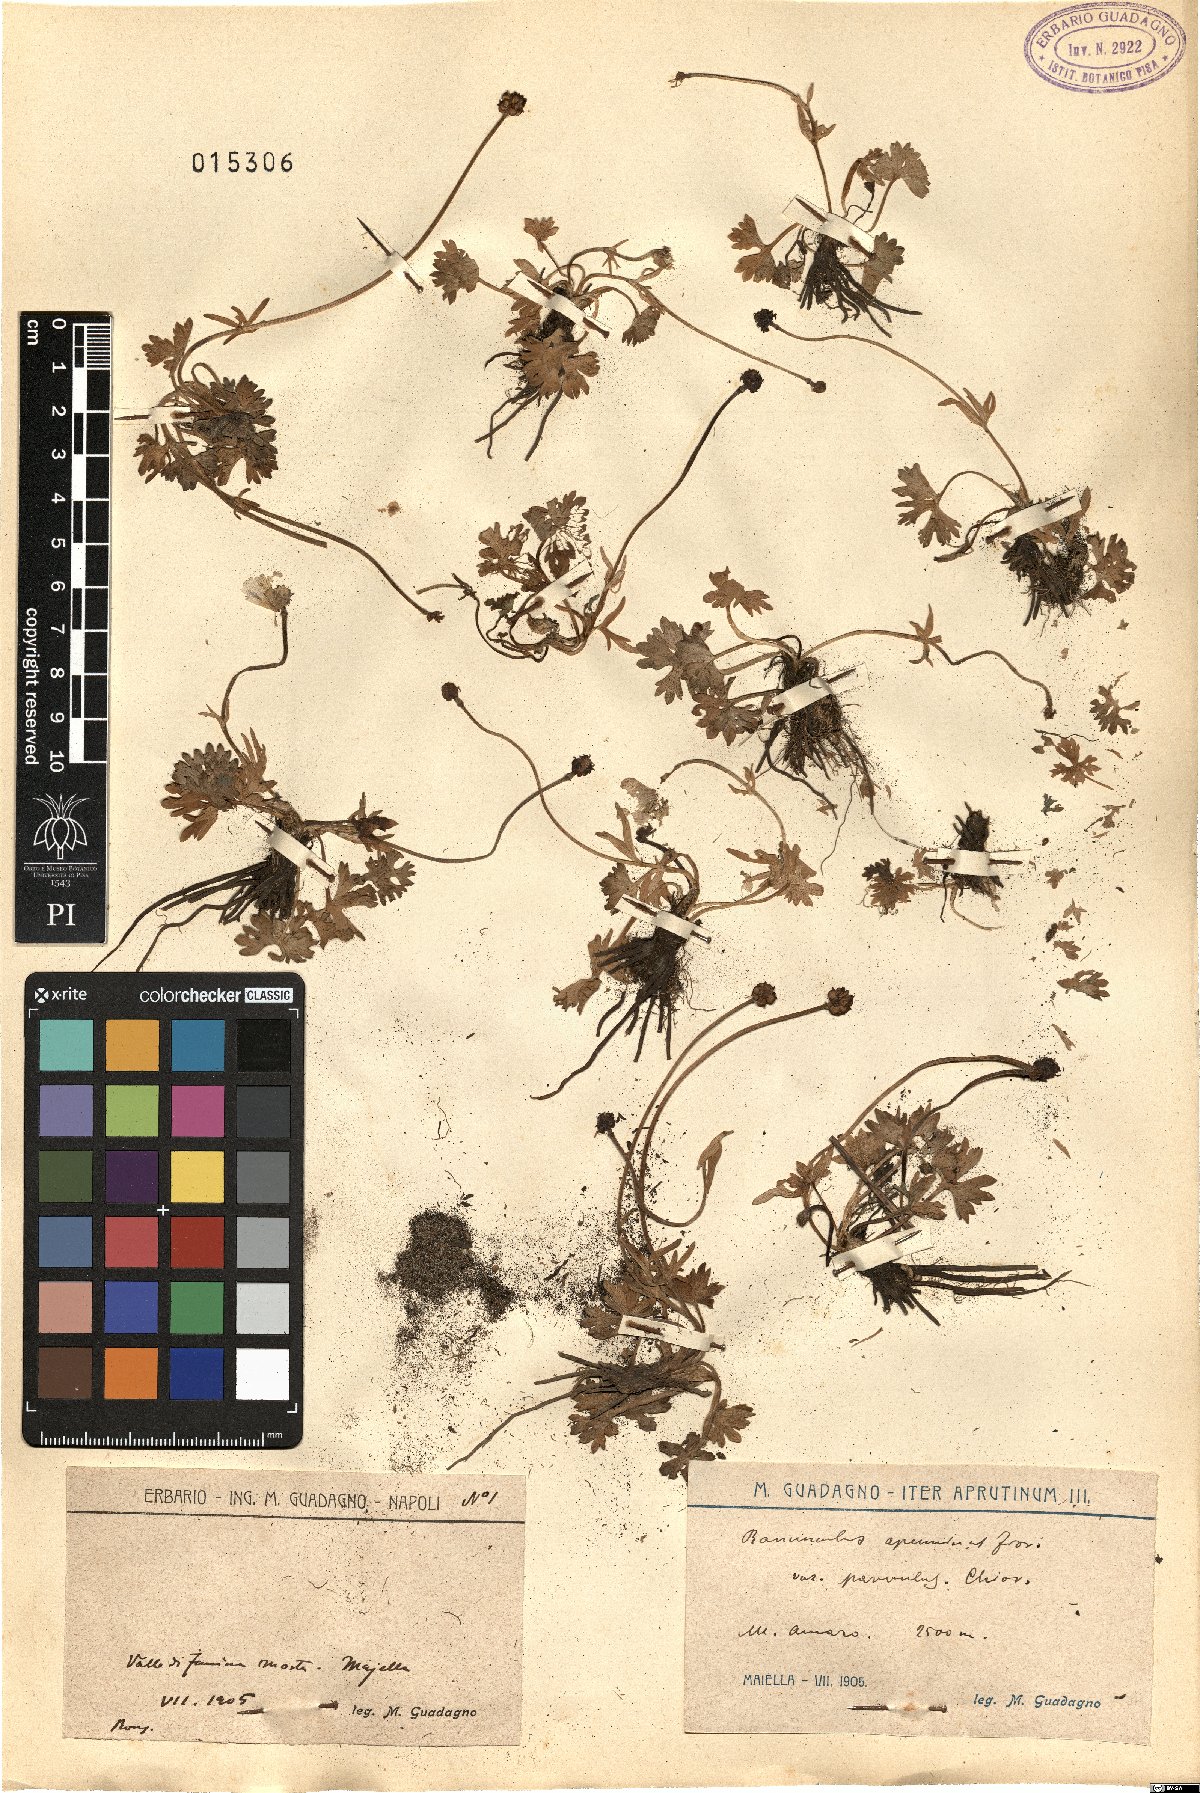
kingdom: Plantae
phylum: Tracheophyta
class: Magnoliopsida
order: Ranunculales
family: Ranunculaceae
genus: Ranunculus
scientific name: Ranunculus apenninus
